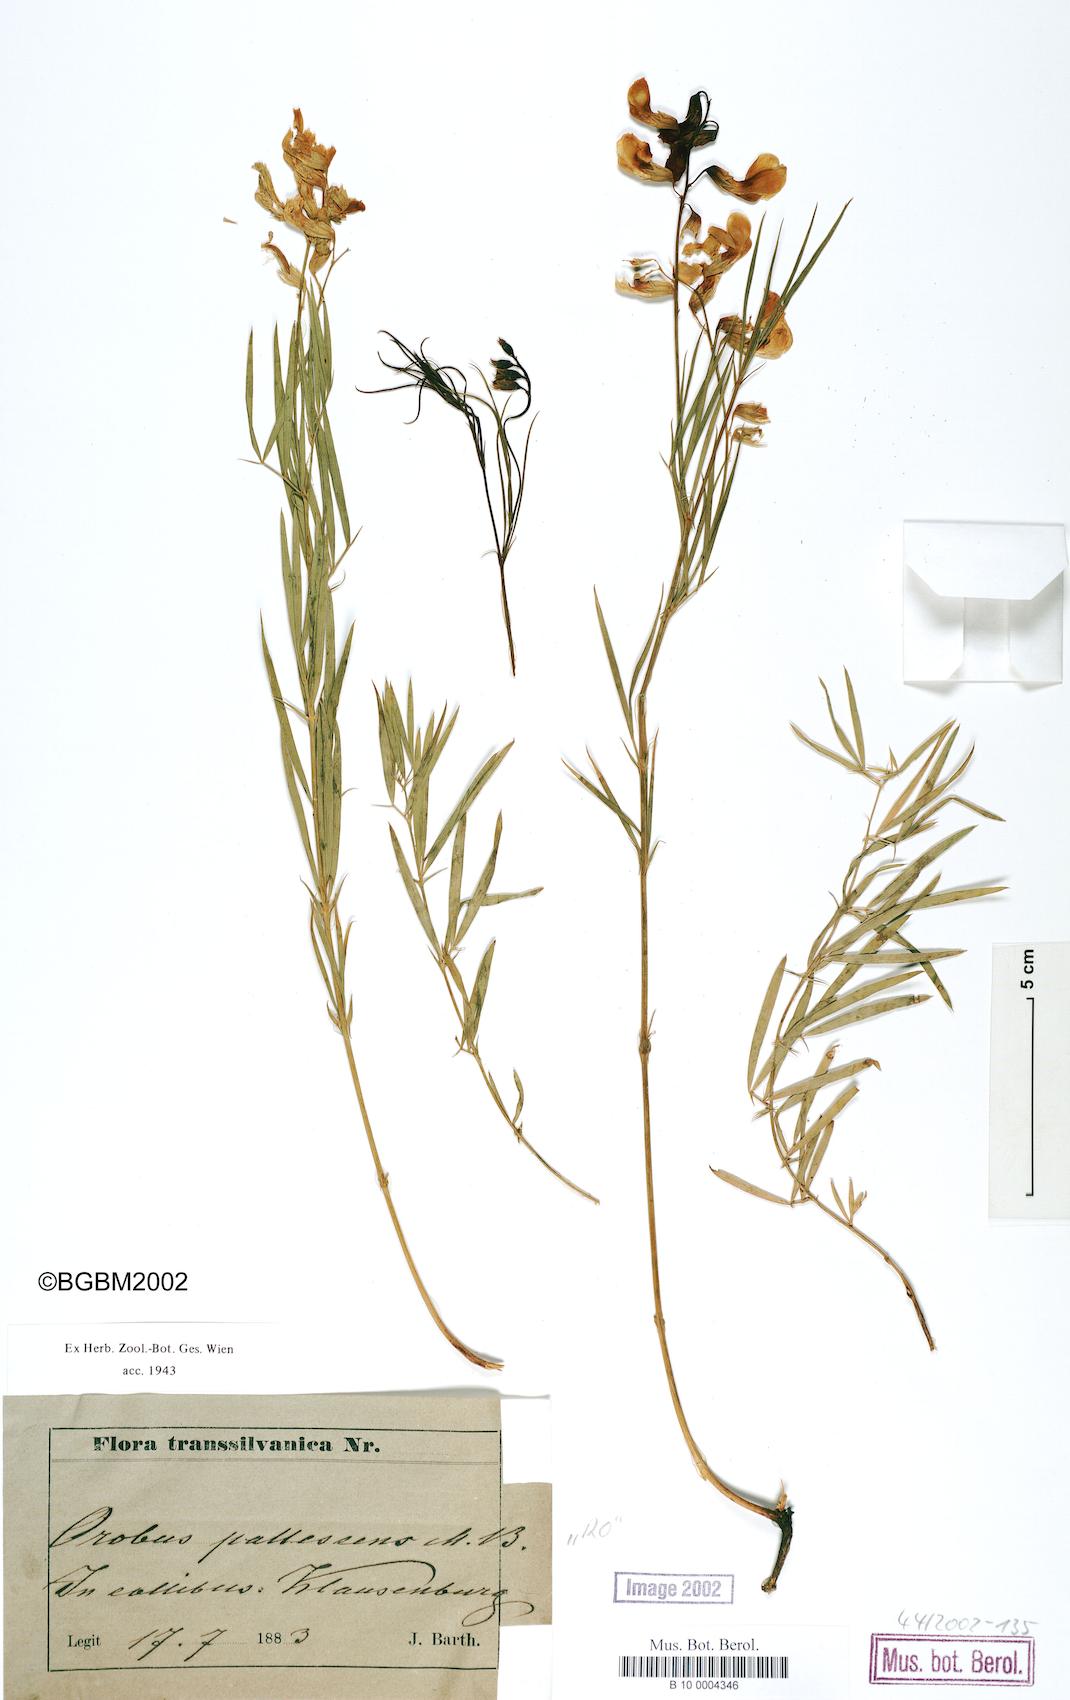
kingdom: Plantae
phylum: Tracheophyta
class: Magnoliopsida
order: Fabales
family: Fabaceae
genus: Lathyrus
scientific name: Lathyrus pallescens
